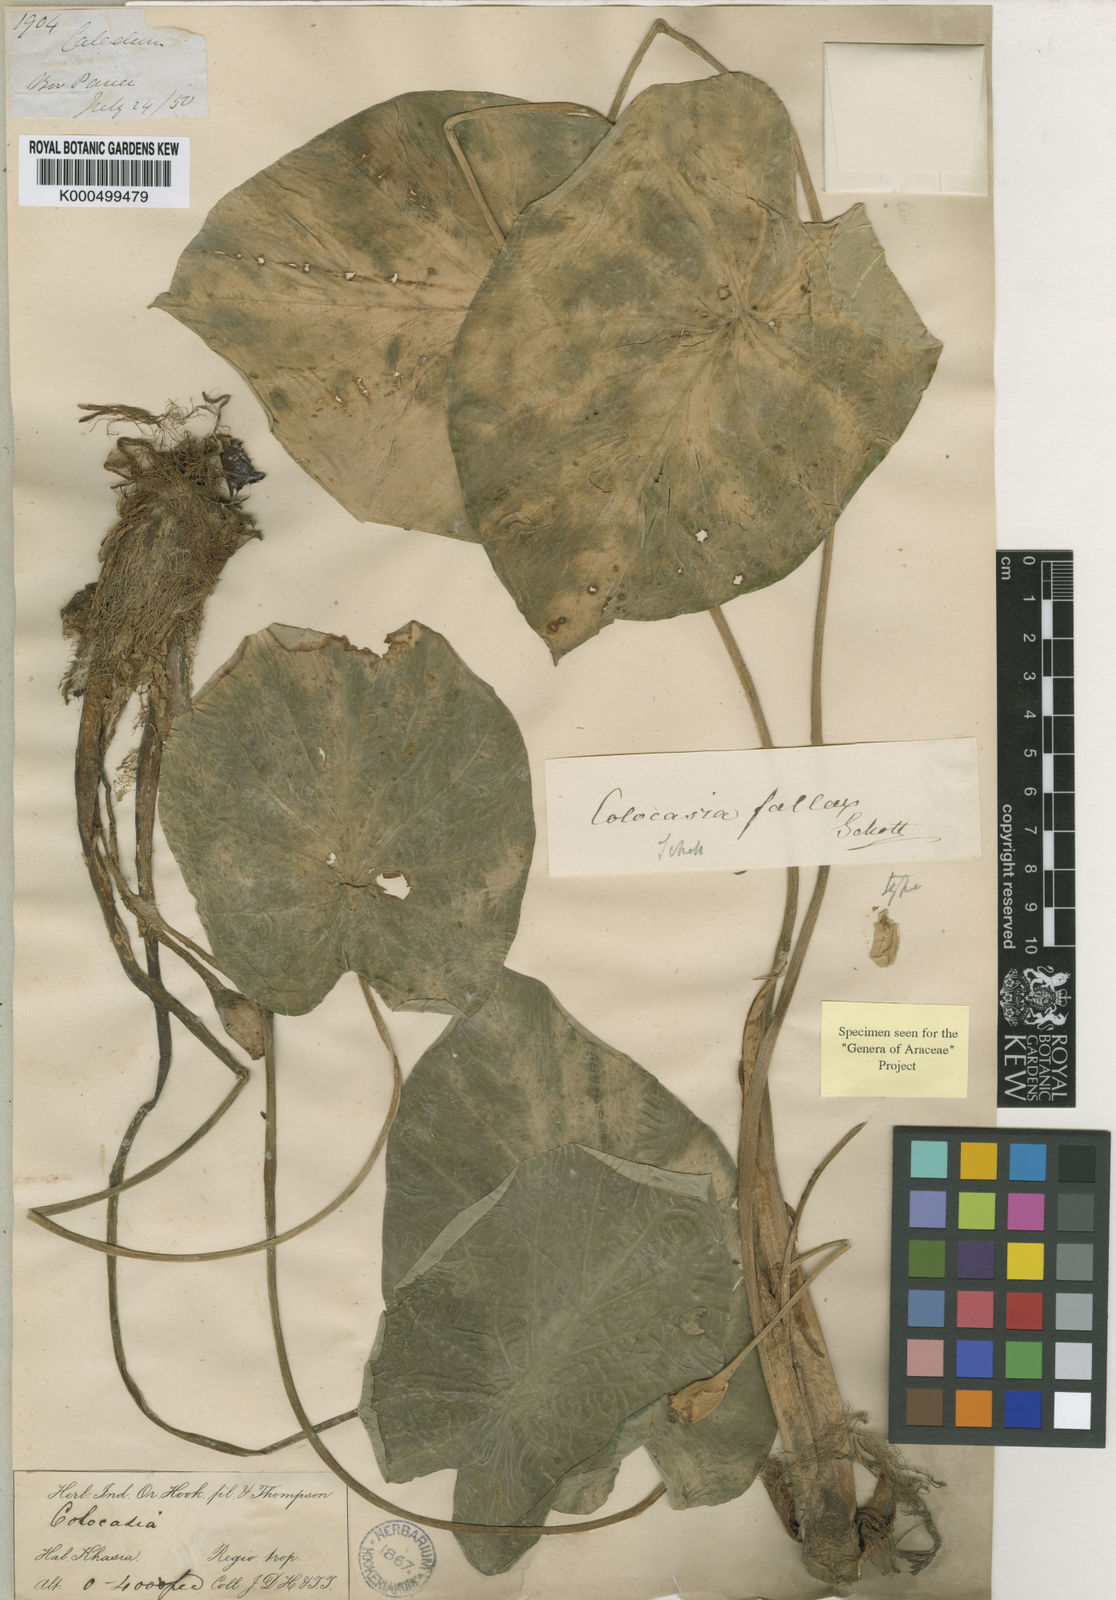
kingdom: Plantae
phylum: Tracheophyta
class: Liliopsida
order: Alismatales
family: Araceae
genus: Colocasia
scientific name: Colocasia fallax
